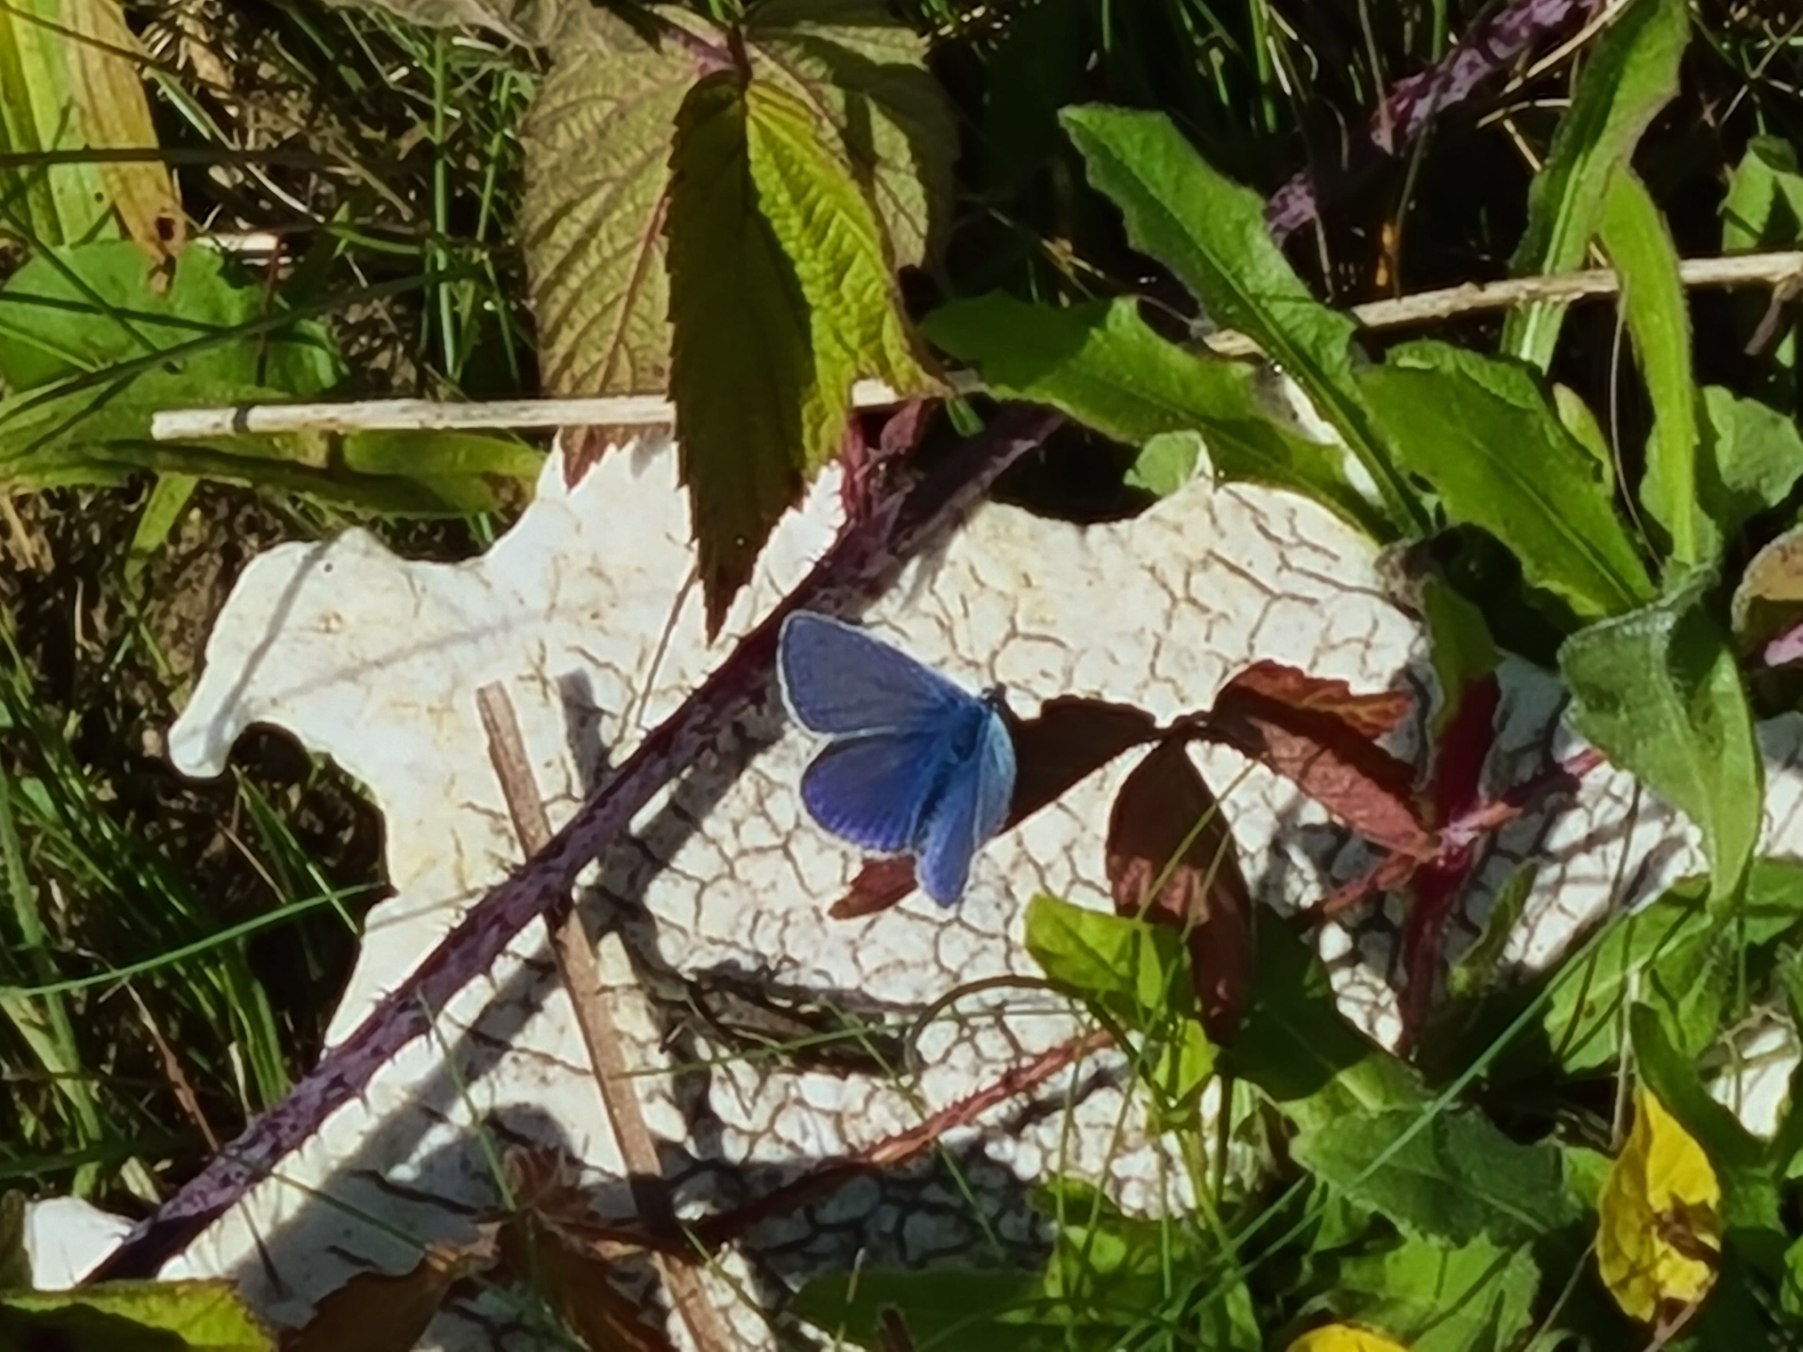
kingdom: Animalia
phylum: Arthropoda
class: Insecta
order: Lepidoptera
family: Lycaenidae
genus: Polyommatus
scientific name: Polyommatus icarus
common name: Almindelig blåfugl
